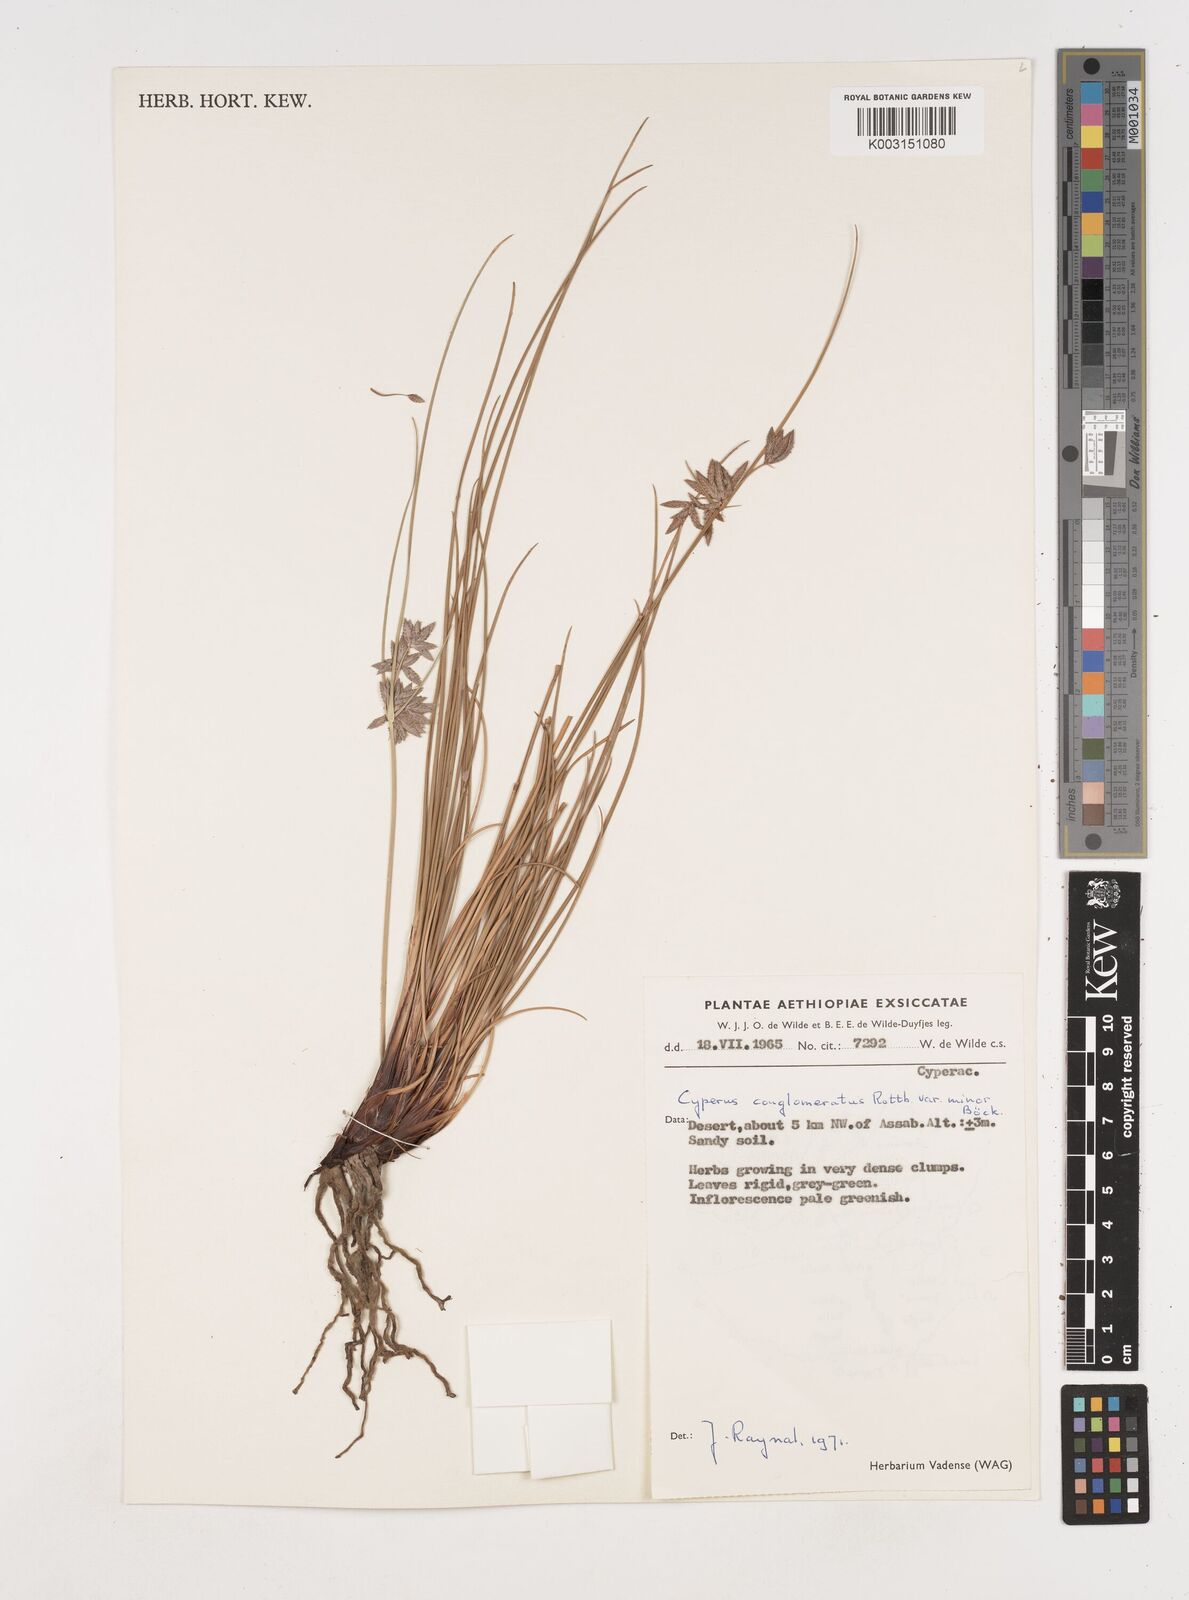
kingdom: Plantae
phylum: Tracheophyta
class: Liliopsida
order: Poales
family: Cyperaceae
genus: Cyperus
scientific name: Cyperus jeminicus
